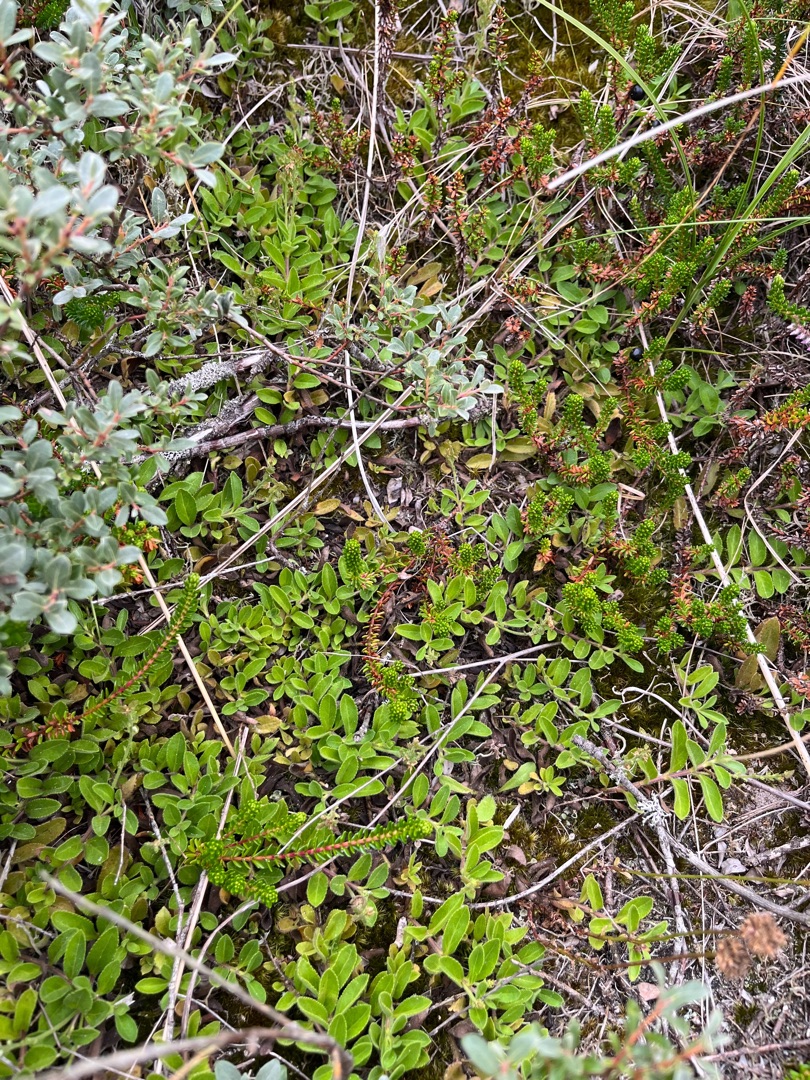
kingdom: Plantae
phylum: Tracheophyta
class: Magnoliopsida
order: Lamiales
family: Plantaginaceae
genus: Veronica
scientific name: Veronica officinalis
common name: Læge-ærenpris
